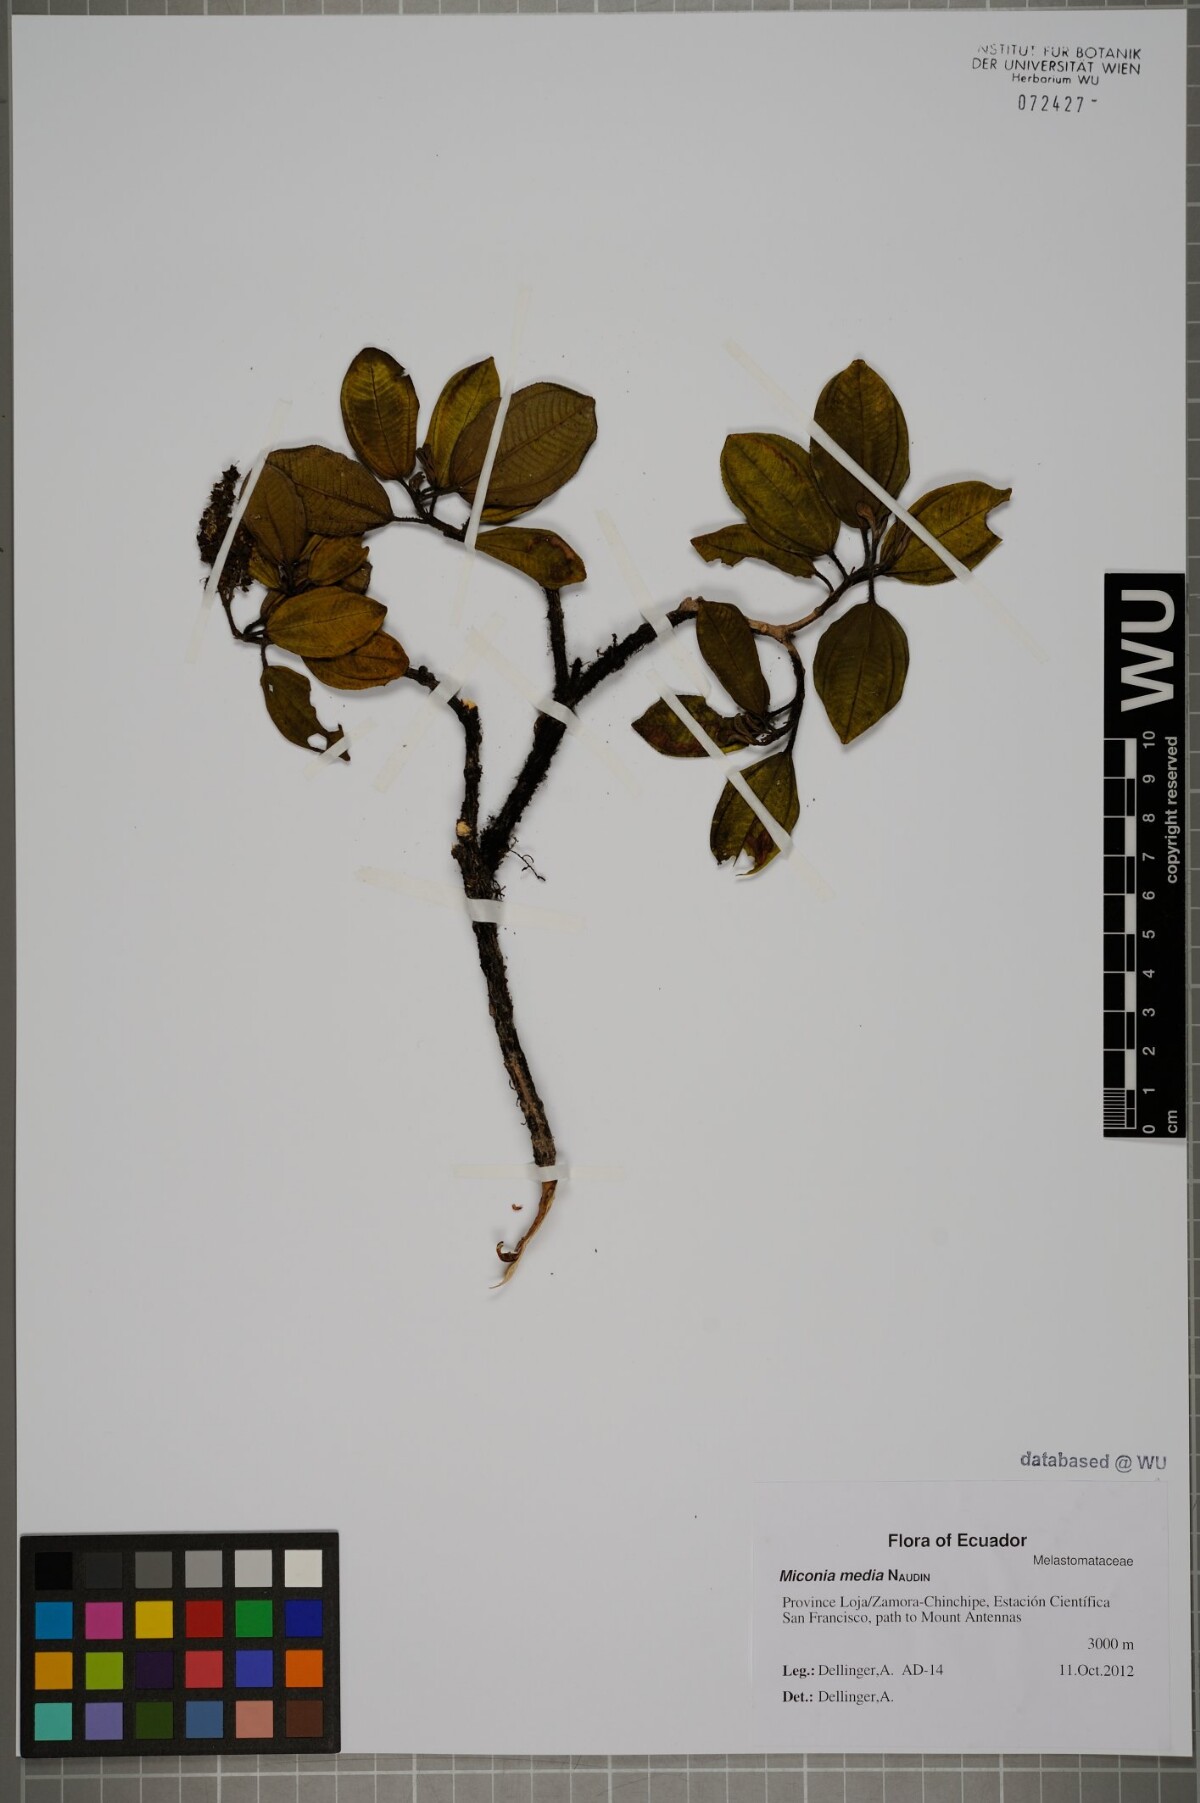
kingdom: Plantae
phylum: Tracheophyta
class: Magnoliopsida
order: Myrtales
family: Melastomataceae
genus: Miconia
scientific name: Miconia media
